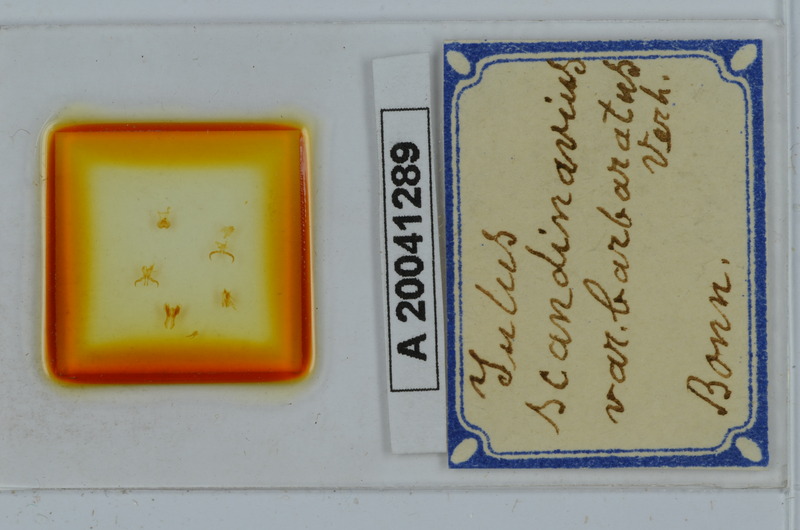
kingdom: Animalia
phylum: Arthropoda
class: Diplopoda
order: Julida
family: Julidae
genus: Julus
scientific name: Julus scandinavius
